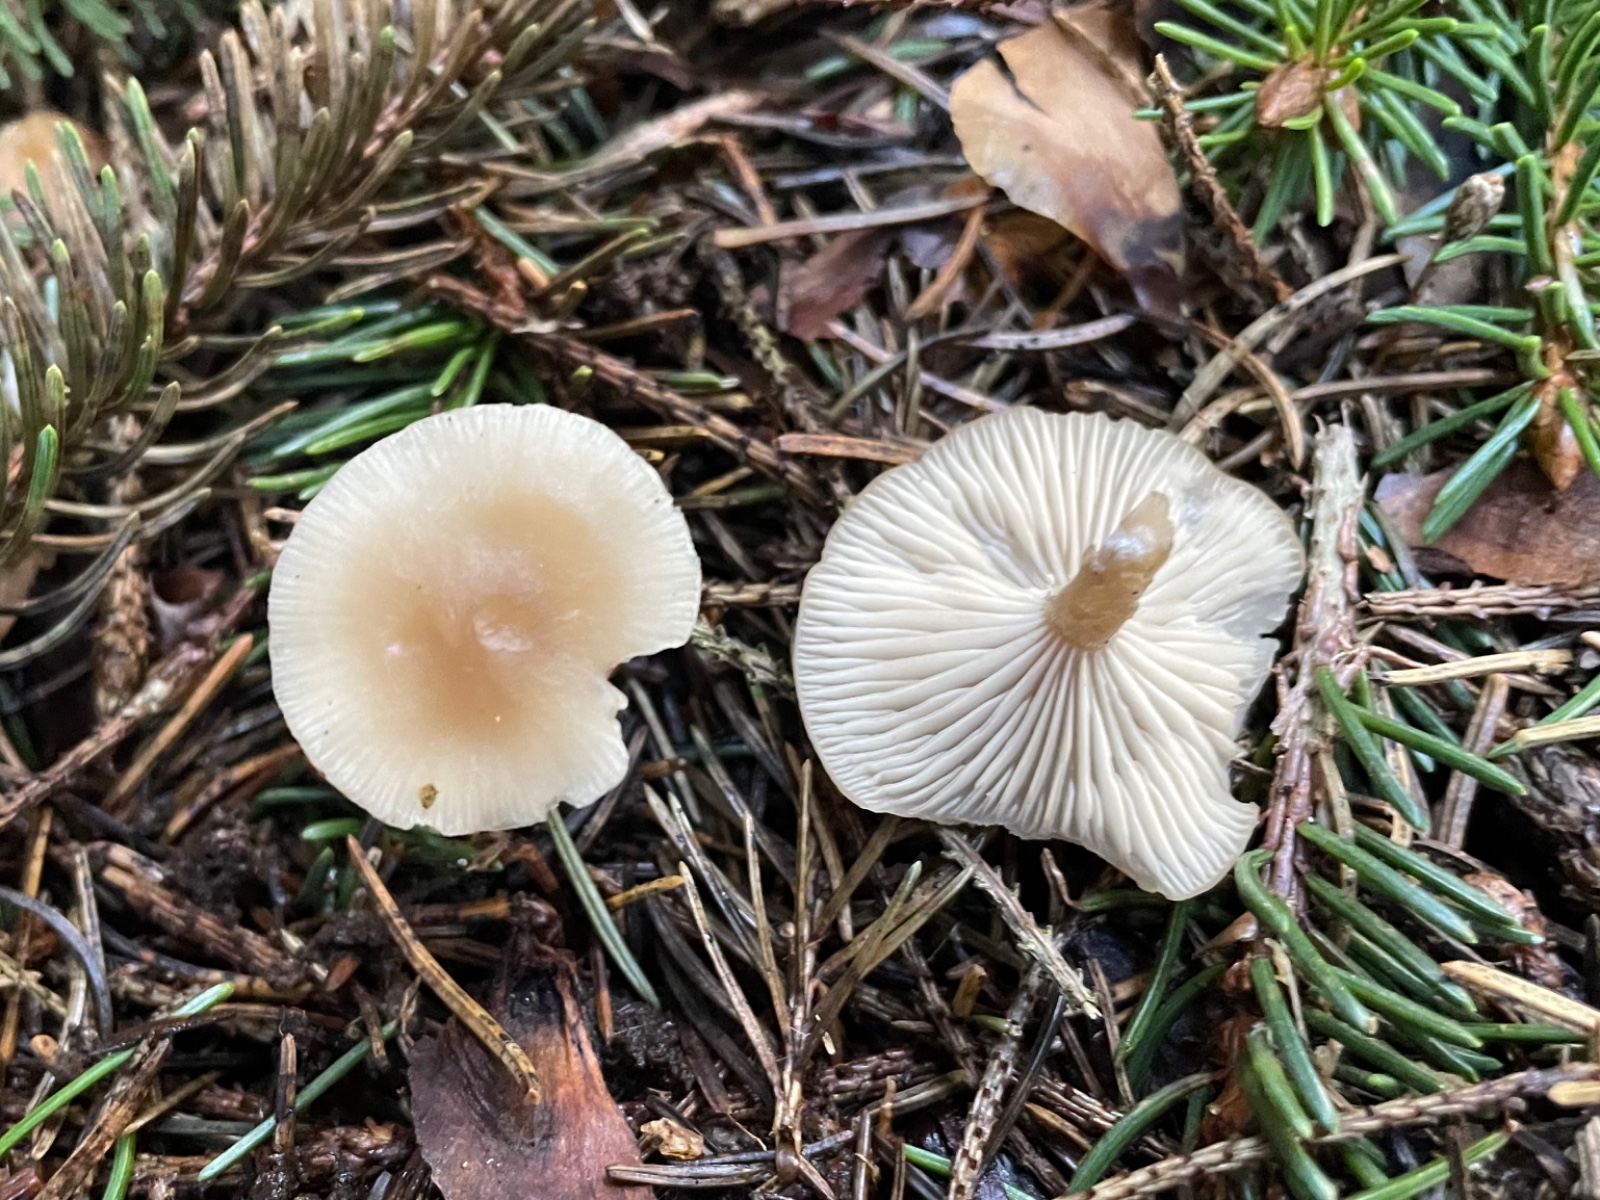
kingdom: Fungi
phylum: Basidiomycota
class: Agaricomycetes
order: Agaricales
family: Tricholomataceae
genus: Clitocybe
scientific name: Clitocybe fragrans
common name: vellugtende tragthat
